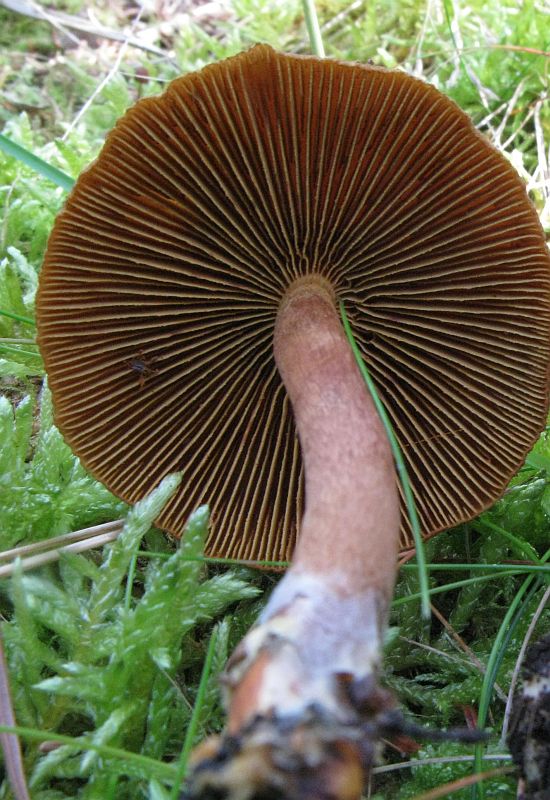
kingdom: Fungi
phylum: Basidiomycota
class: Agaricomycetes
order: Agaricales
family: Cortinariaceae
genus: Cortinarius
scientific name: Cortinarius
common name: gulbladet slørhat
